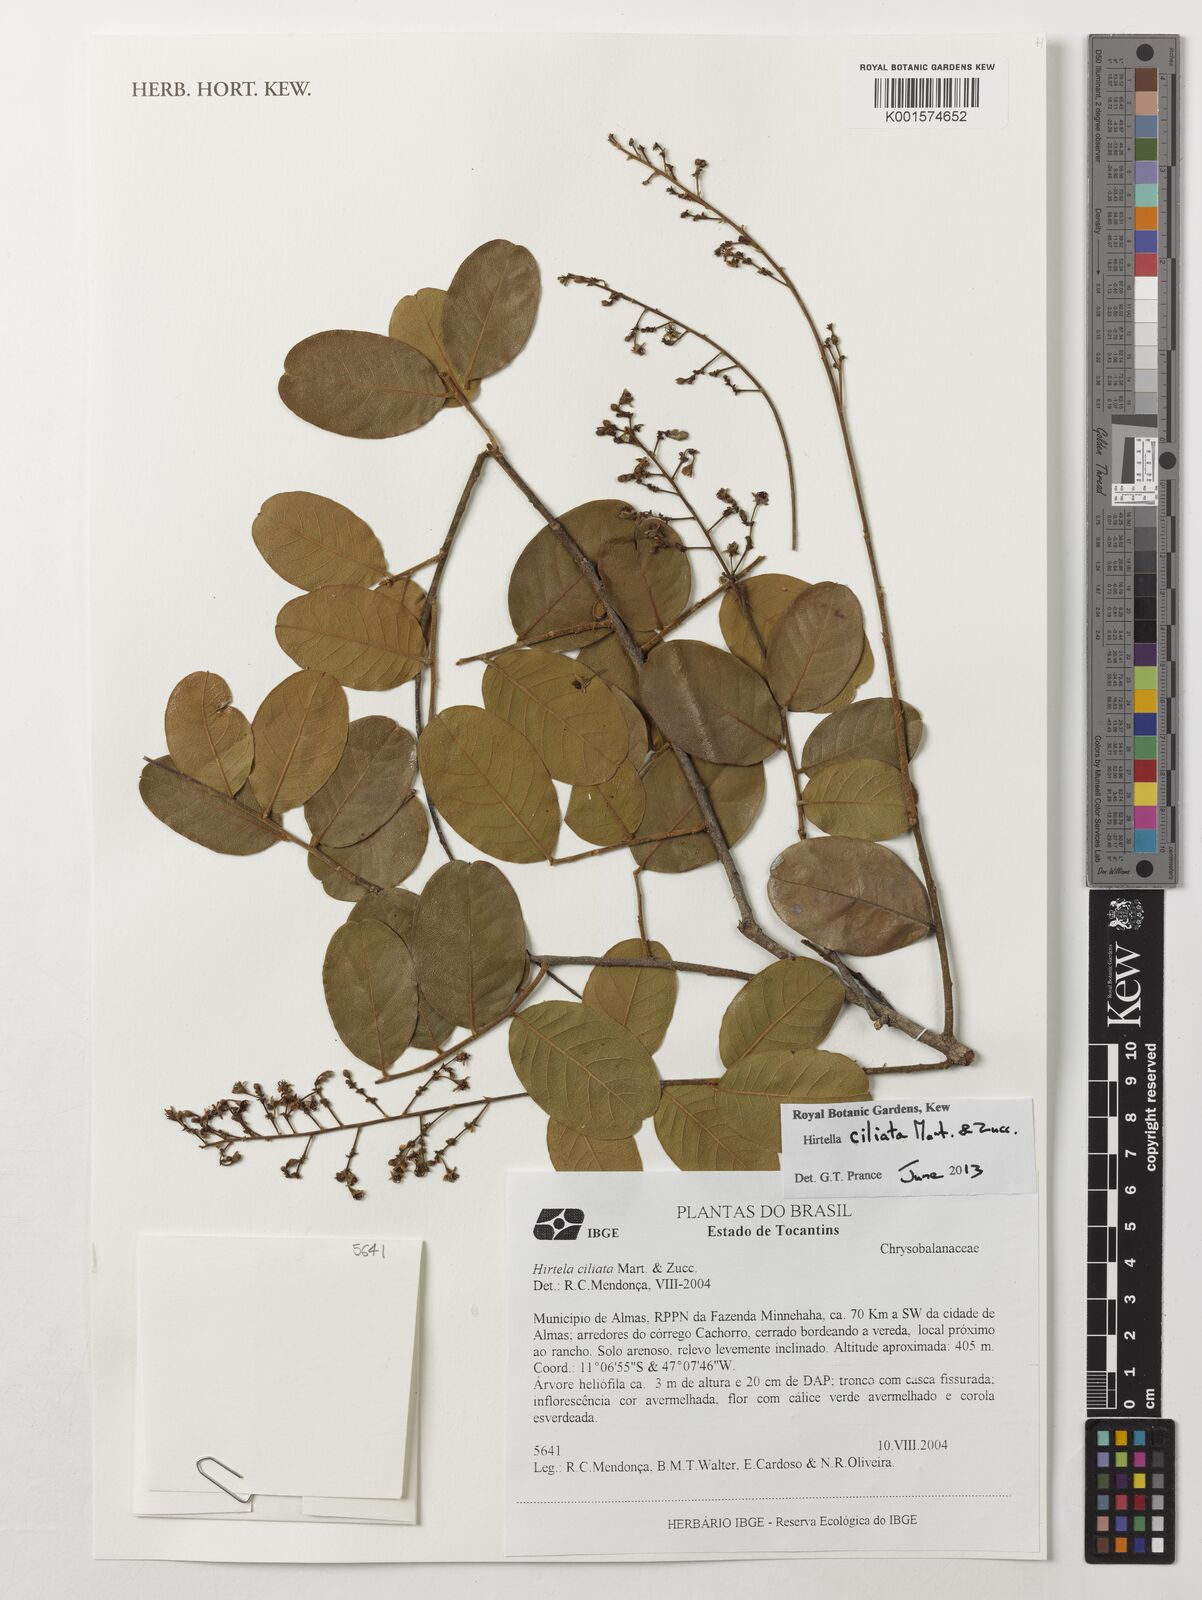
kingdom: Plantae
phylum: Tracheophyta
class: Magnoliopsida
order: Malpighiales
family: Chrysobalanaceae
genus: Hirtella
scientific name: Hirtella ciliata
